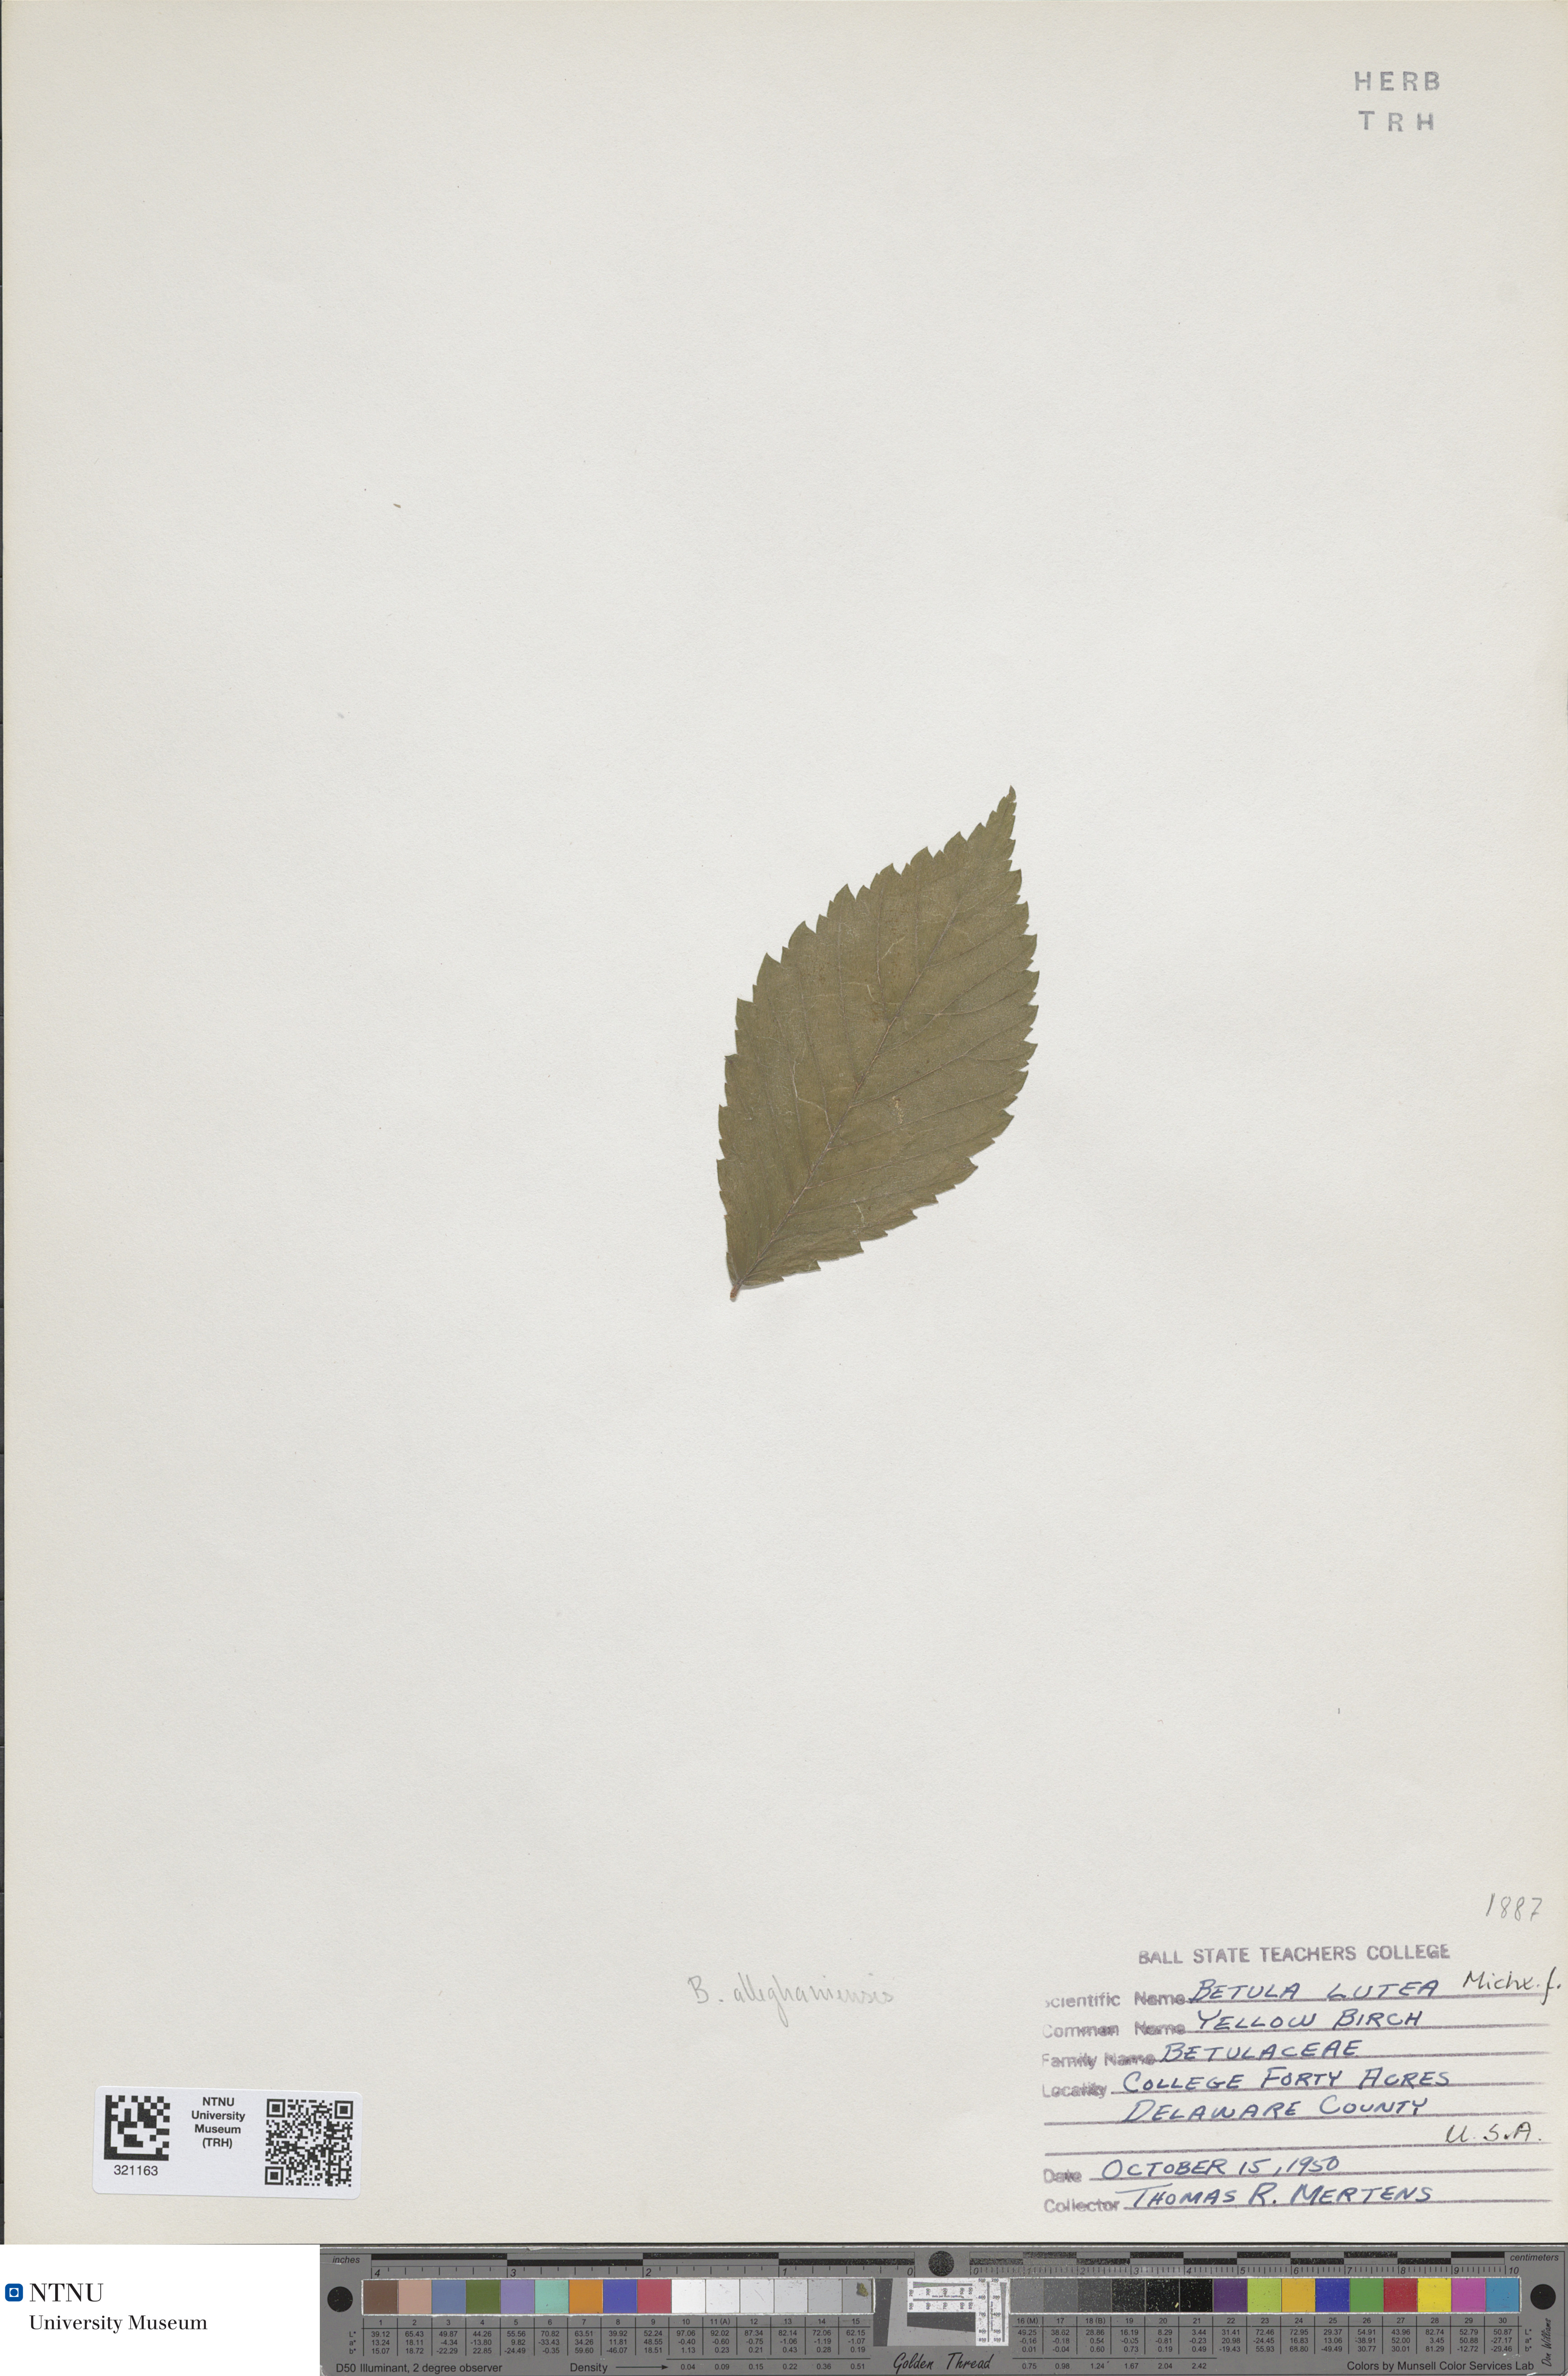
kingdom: Plantae
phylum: Tracheophyta
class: Magnoliopsida
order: Fagales
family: Betulaceae
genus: Betula
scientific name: Betula alleghaniensis
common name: Yellow birch
